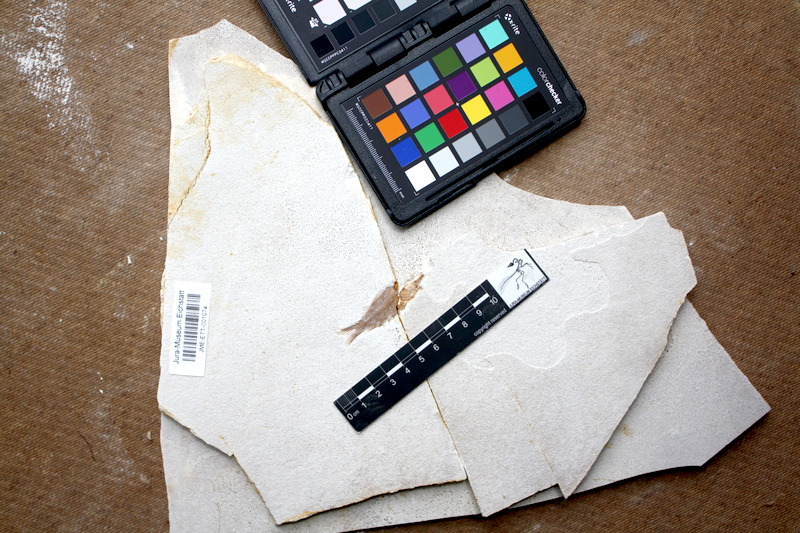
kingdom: Animalia
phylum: Chordata
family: Macrosemiidae
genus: Notagogus
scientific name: Notagogus denticulatus
